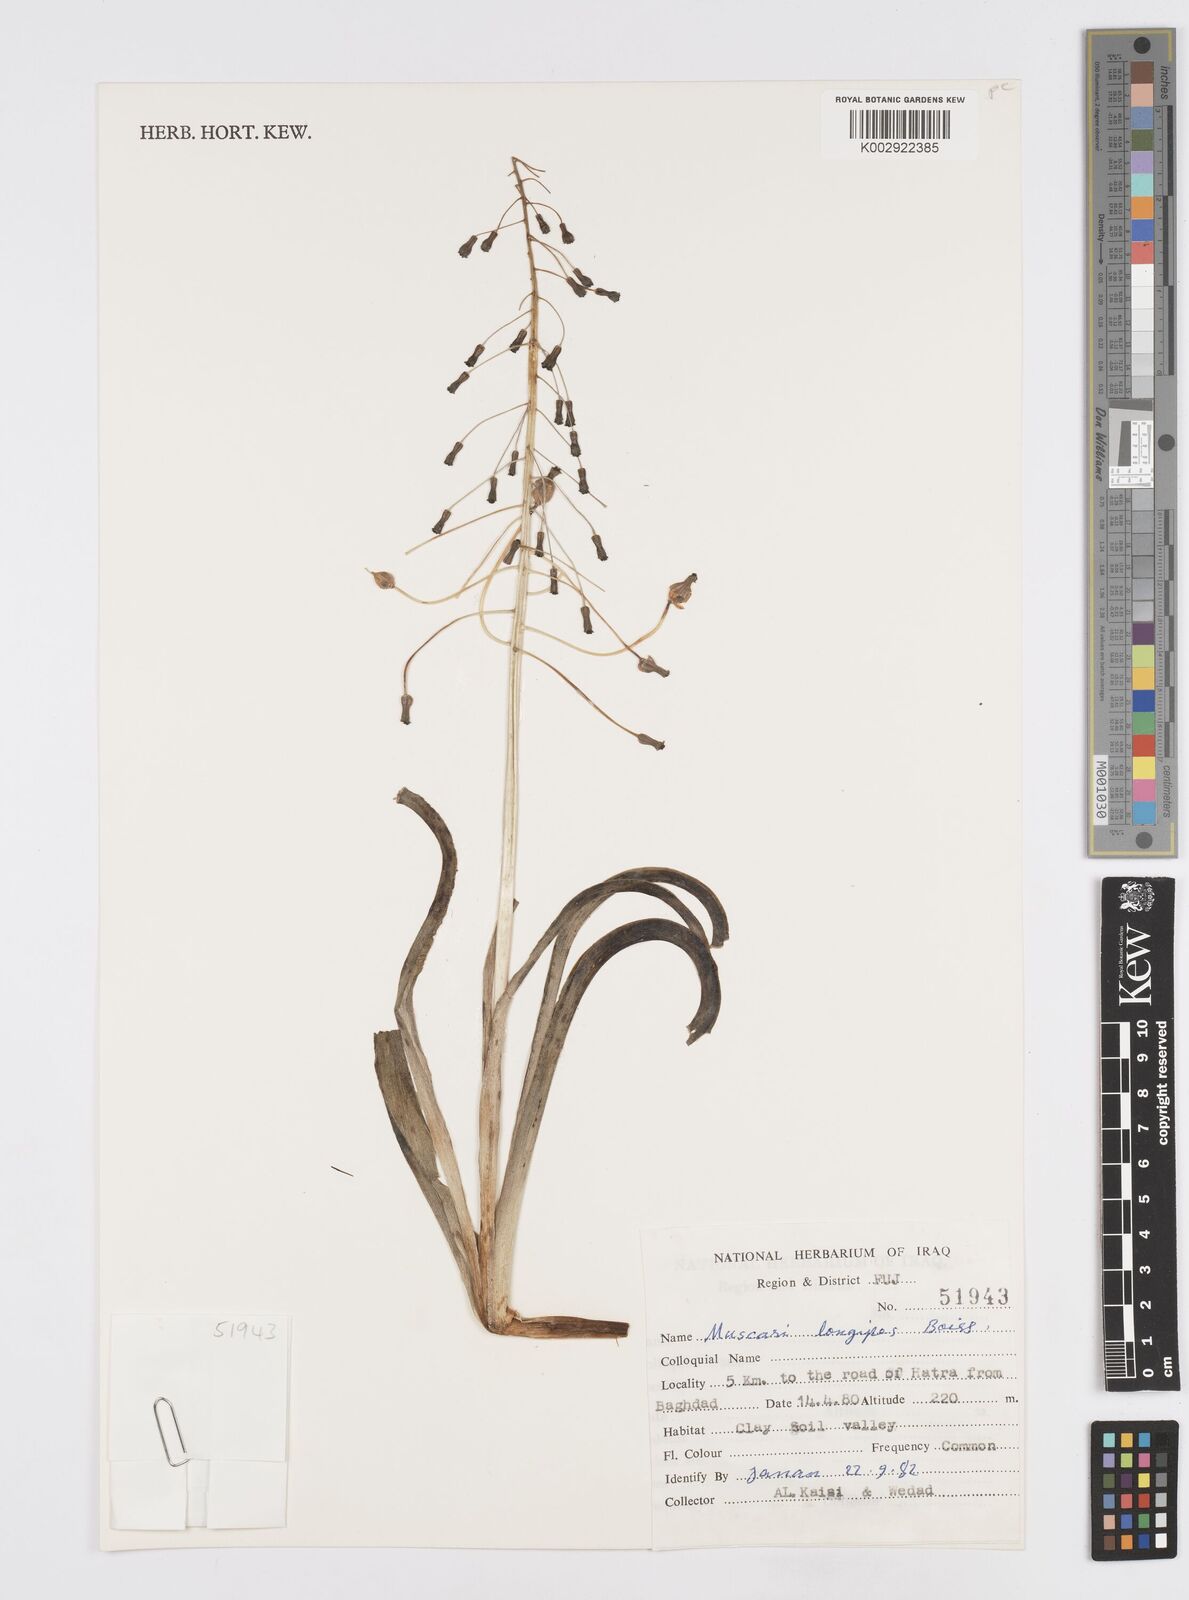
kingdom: Plantae
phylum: Tracheophyta
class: Liliopsida
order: Asparagales
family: Asparagaceae
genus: Muscari
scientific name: Muscari longipes
